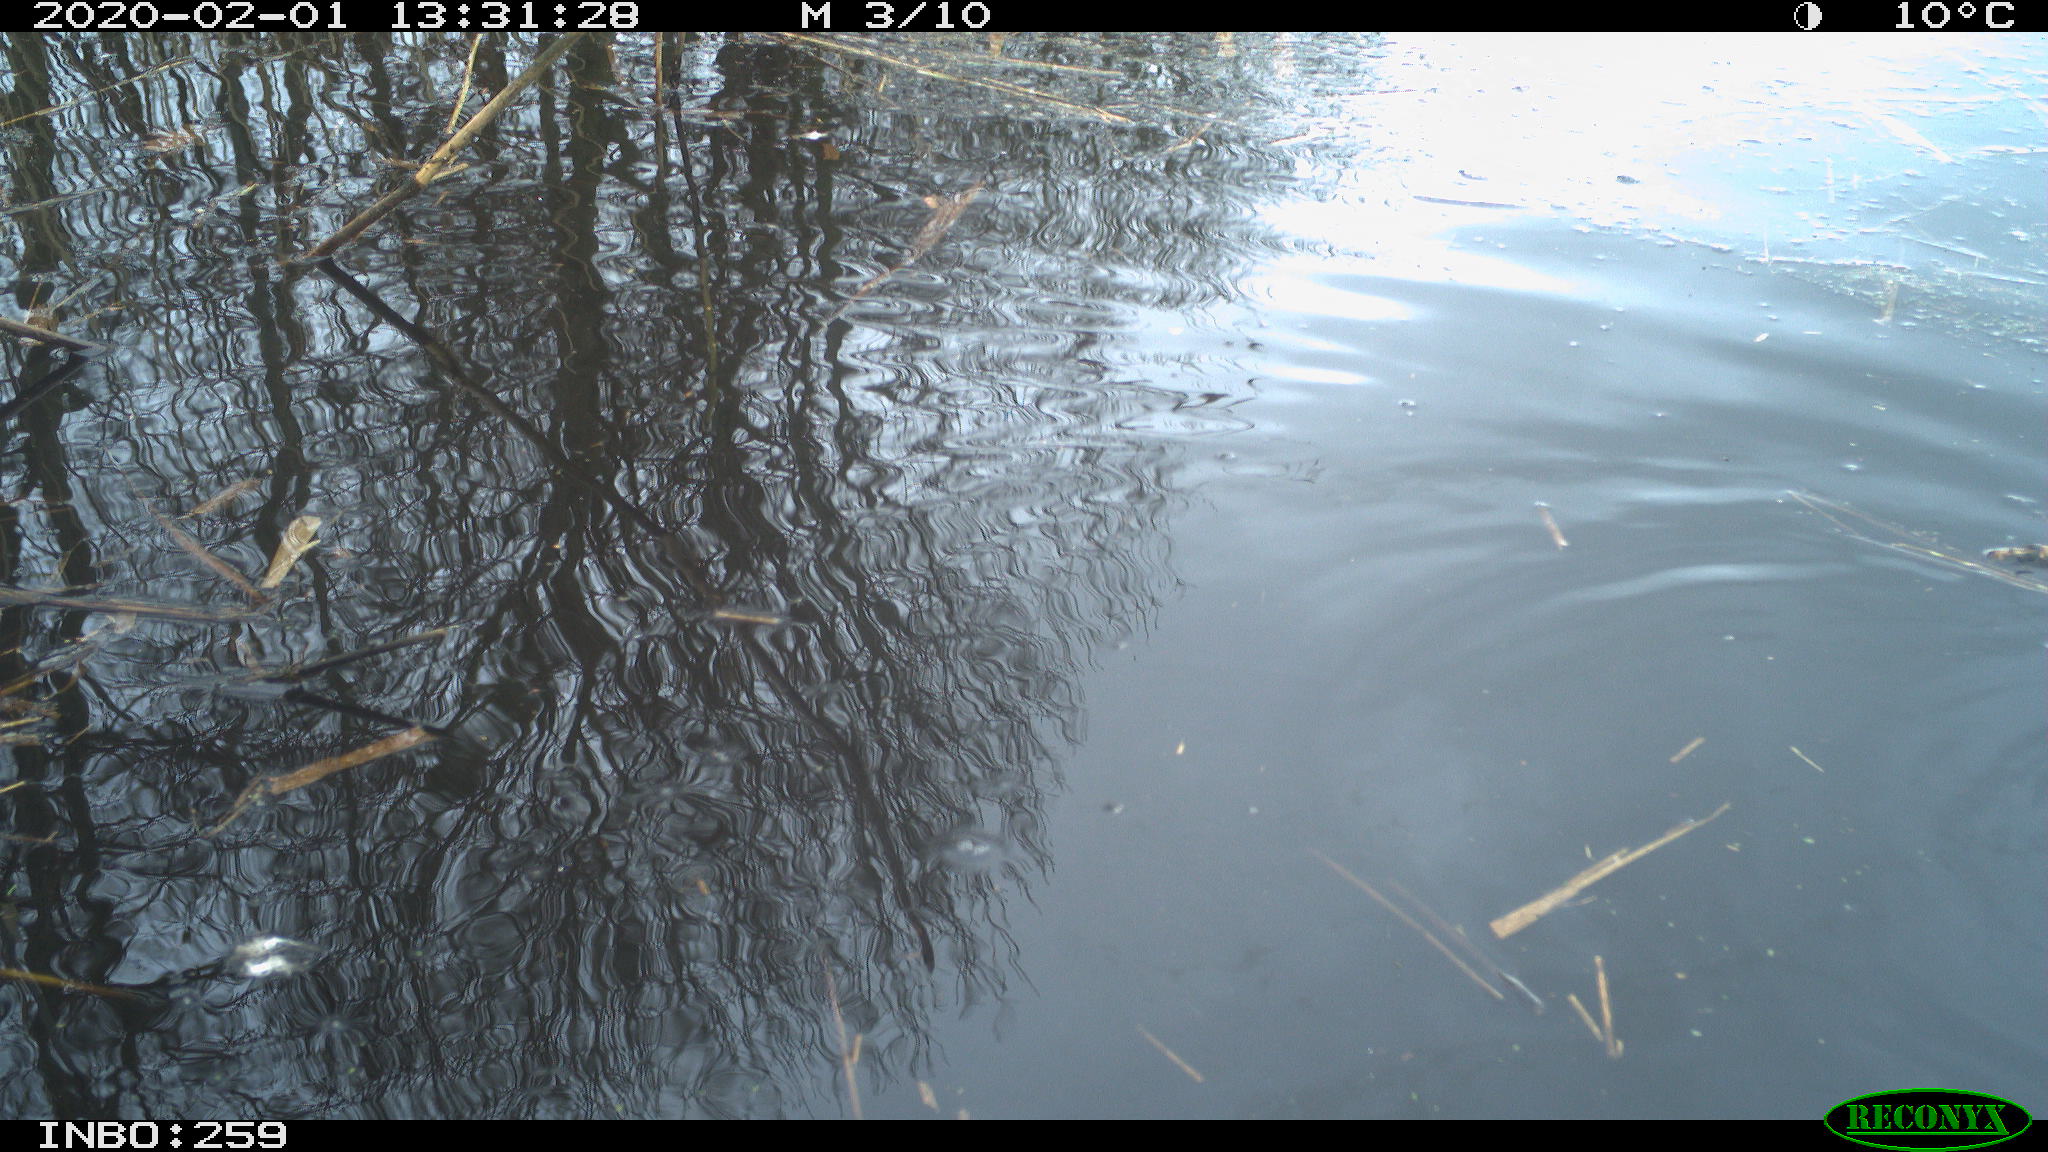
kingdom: Animalia
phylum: Chordata
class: Aves
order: Gruiformes
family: Rallidae
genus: Gallinula
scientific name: Gallinula chloropus
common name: Common moorhen
